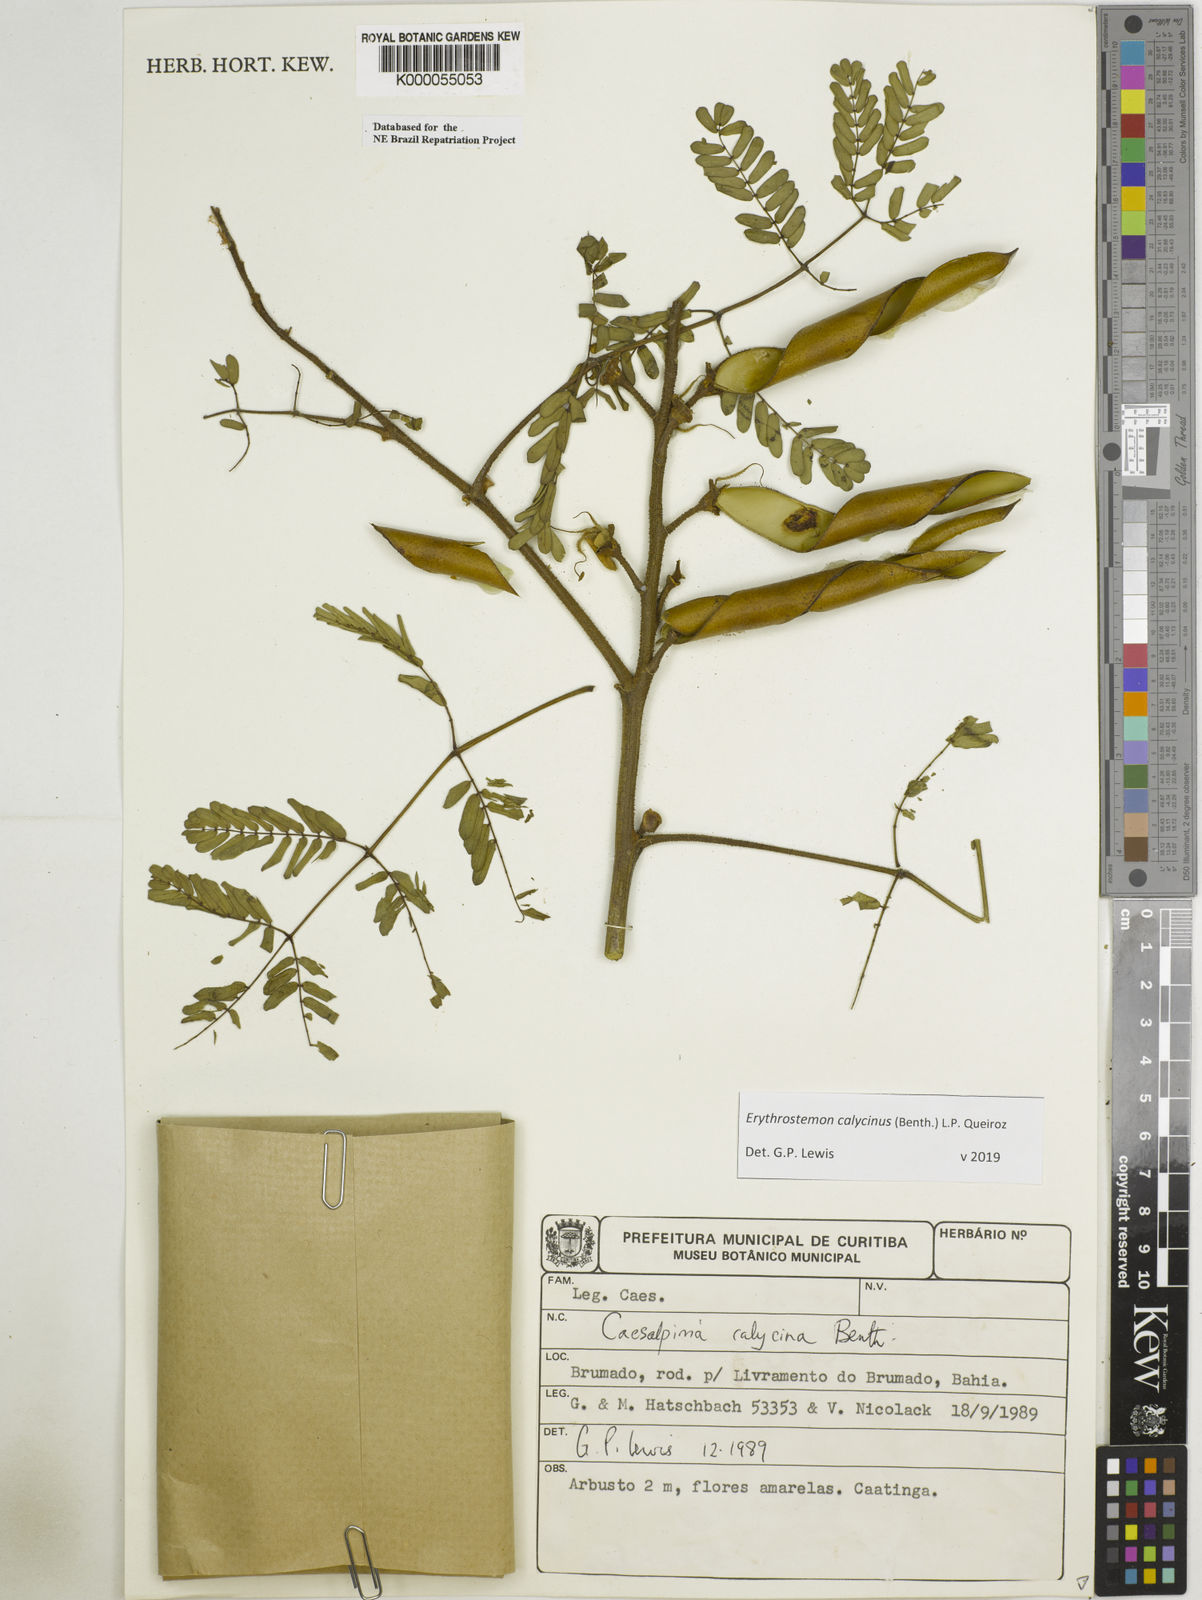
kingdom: Plantae
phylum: Tracheophyta
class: Magnoliopsida
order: Fabales
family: Fabaceae
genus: Erythrostemon
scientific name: Erythrostemon calycinus
